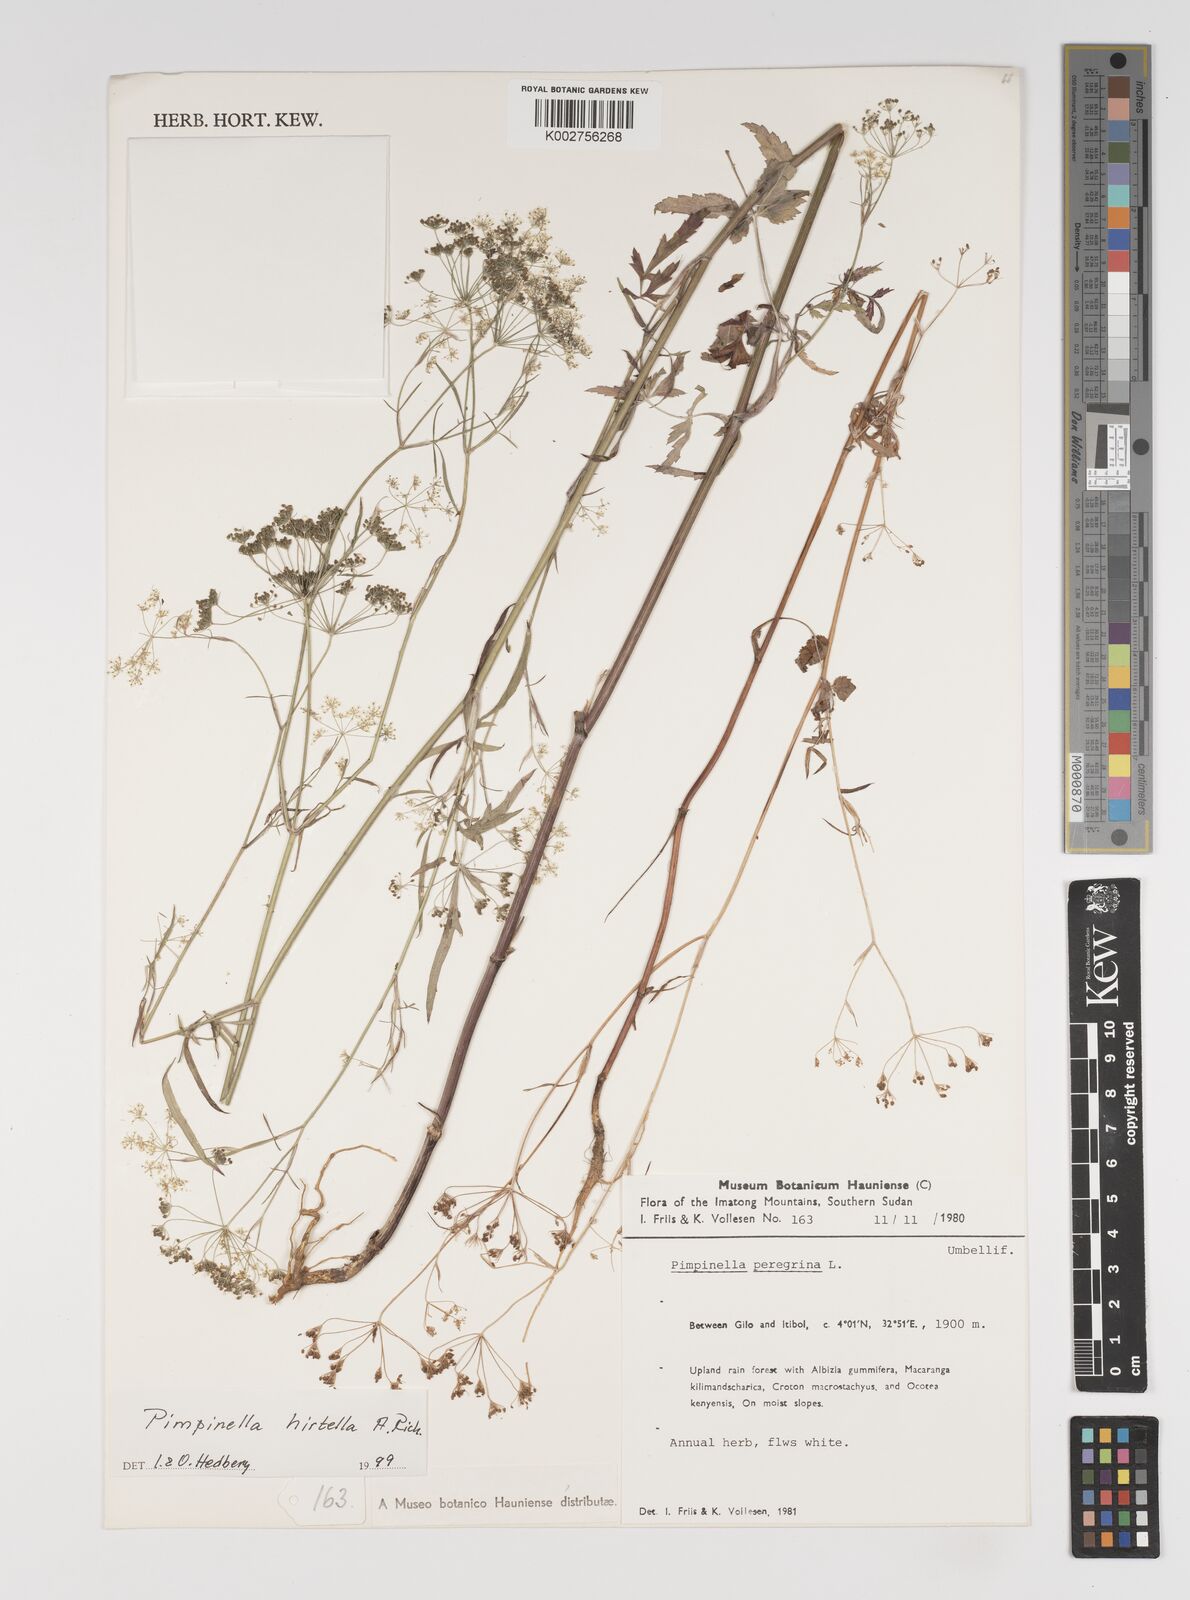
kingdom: Plantae
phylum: Tracheophyta
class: Magnoliopsida
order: Apiales
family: Apiaceae
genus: Pimpinella
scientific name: Pimpinella hirtella
